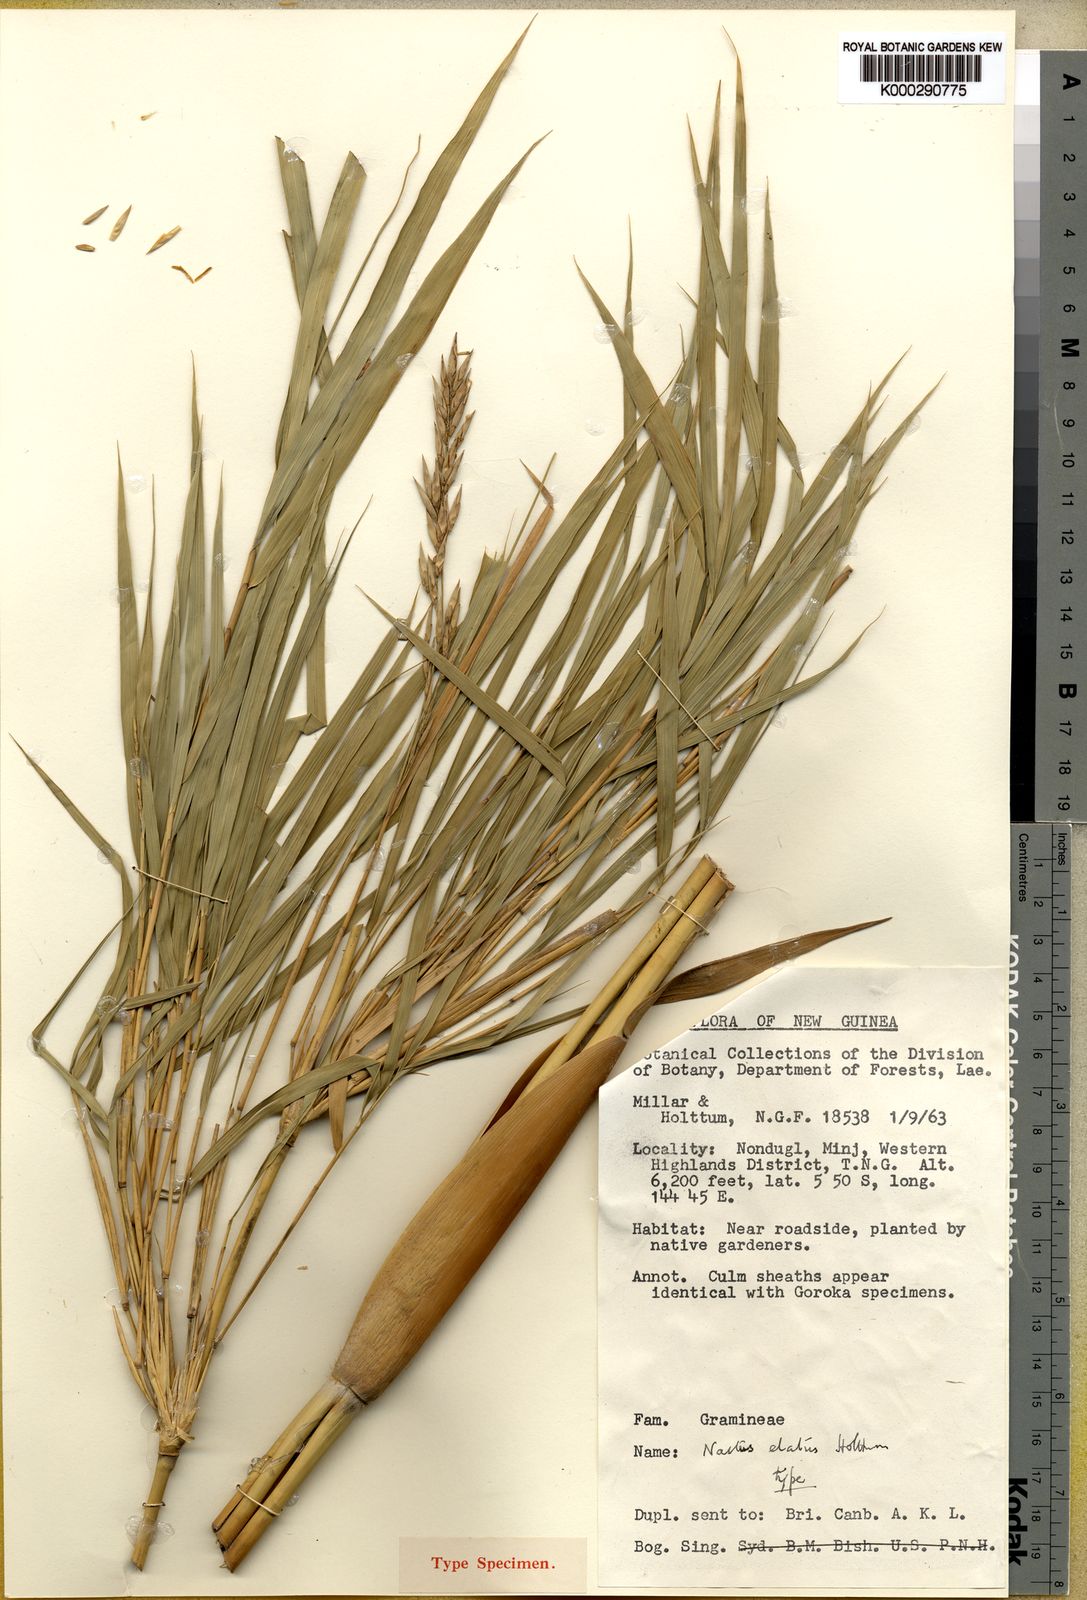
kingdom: Plantae
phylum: Tracheophyta
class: Liliopsida
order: Poales
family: Poaceae
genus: Chloothamnus
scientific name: Chloothamnus elegantissimus
